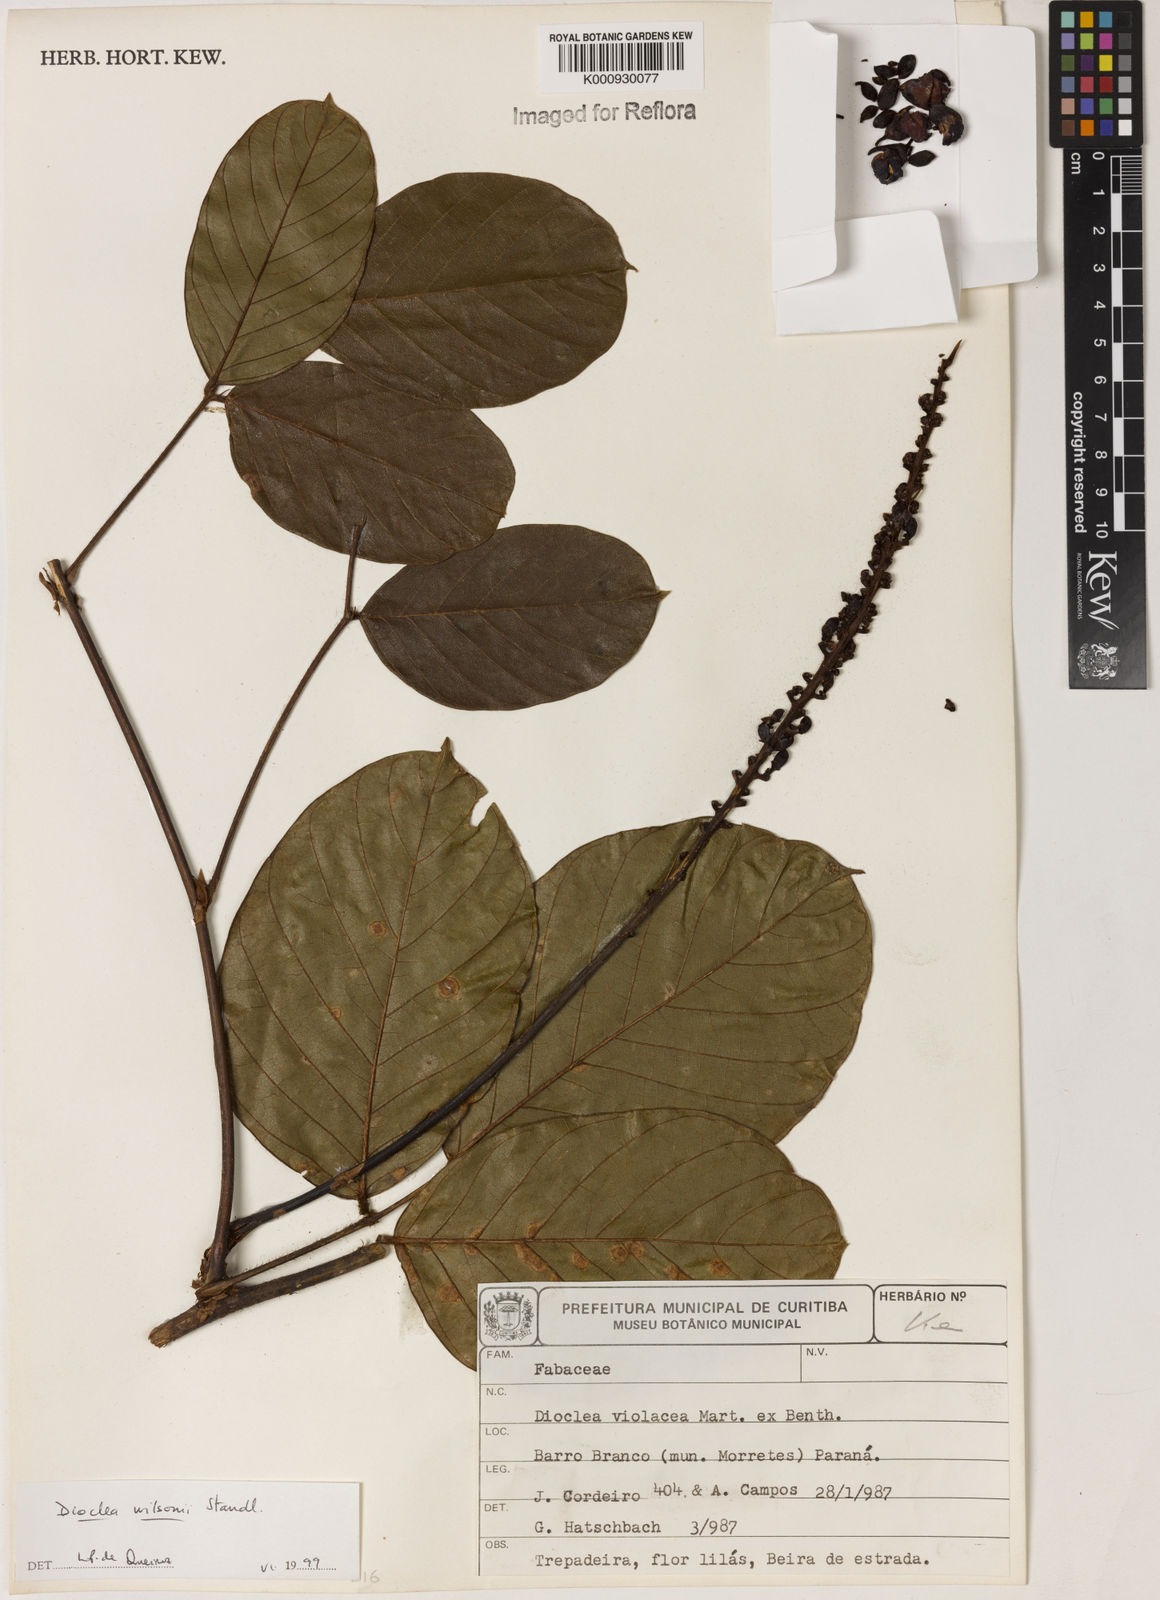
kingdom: Plantae
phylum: Tracheophyta
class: Magnoliopsida
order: Fabales
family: Fabaceae
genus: Macropsychanthus
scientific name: Macropsychanthus wilsonii
